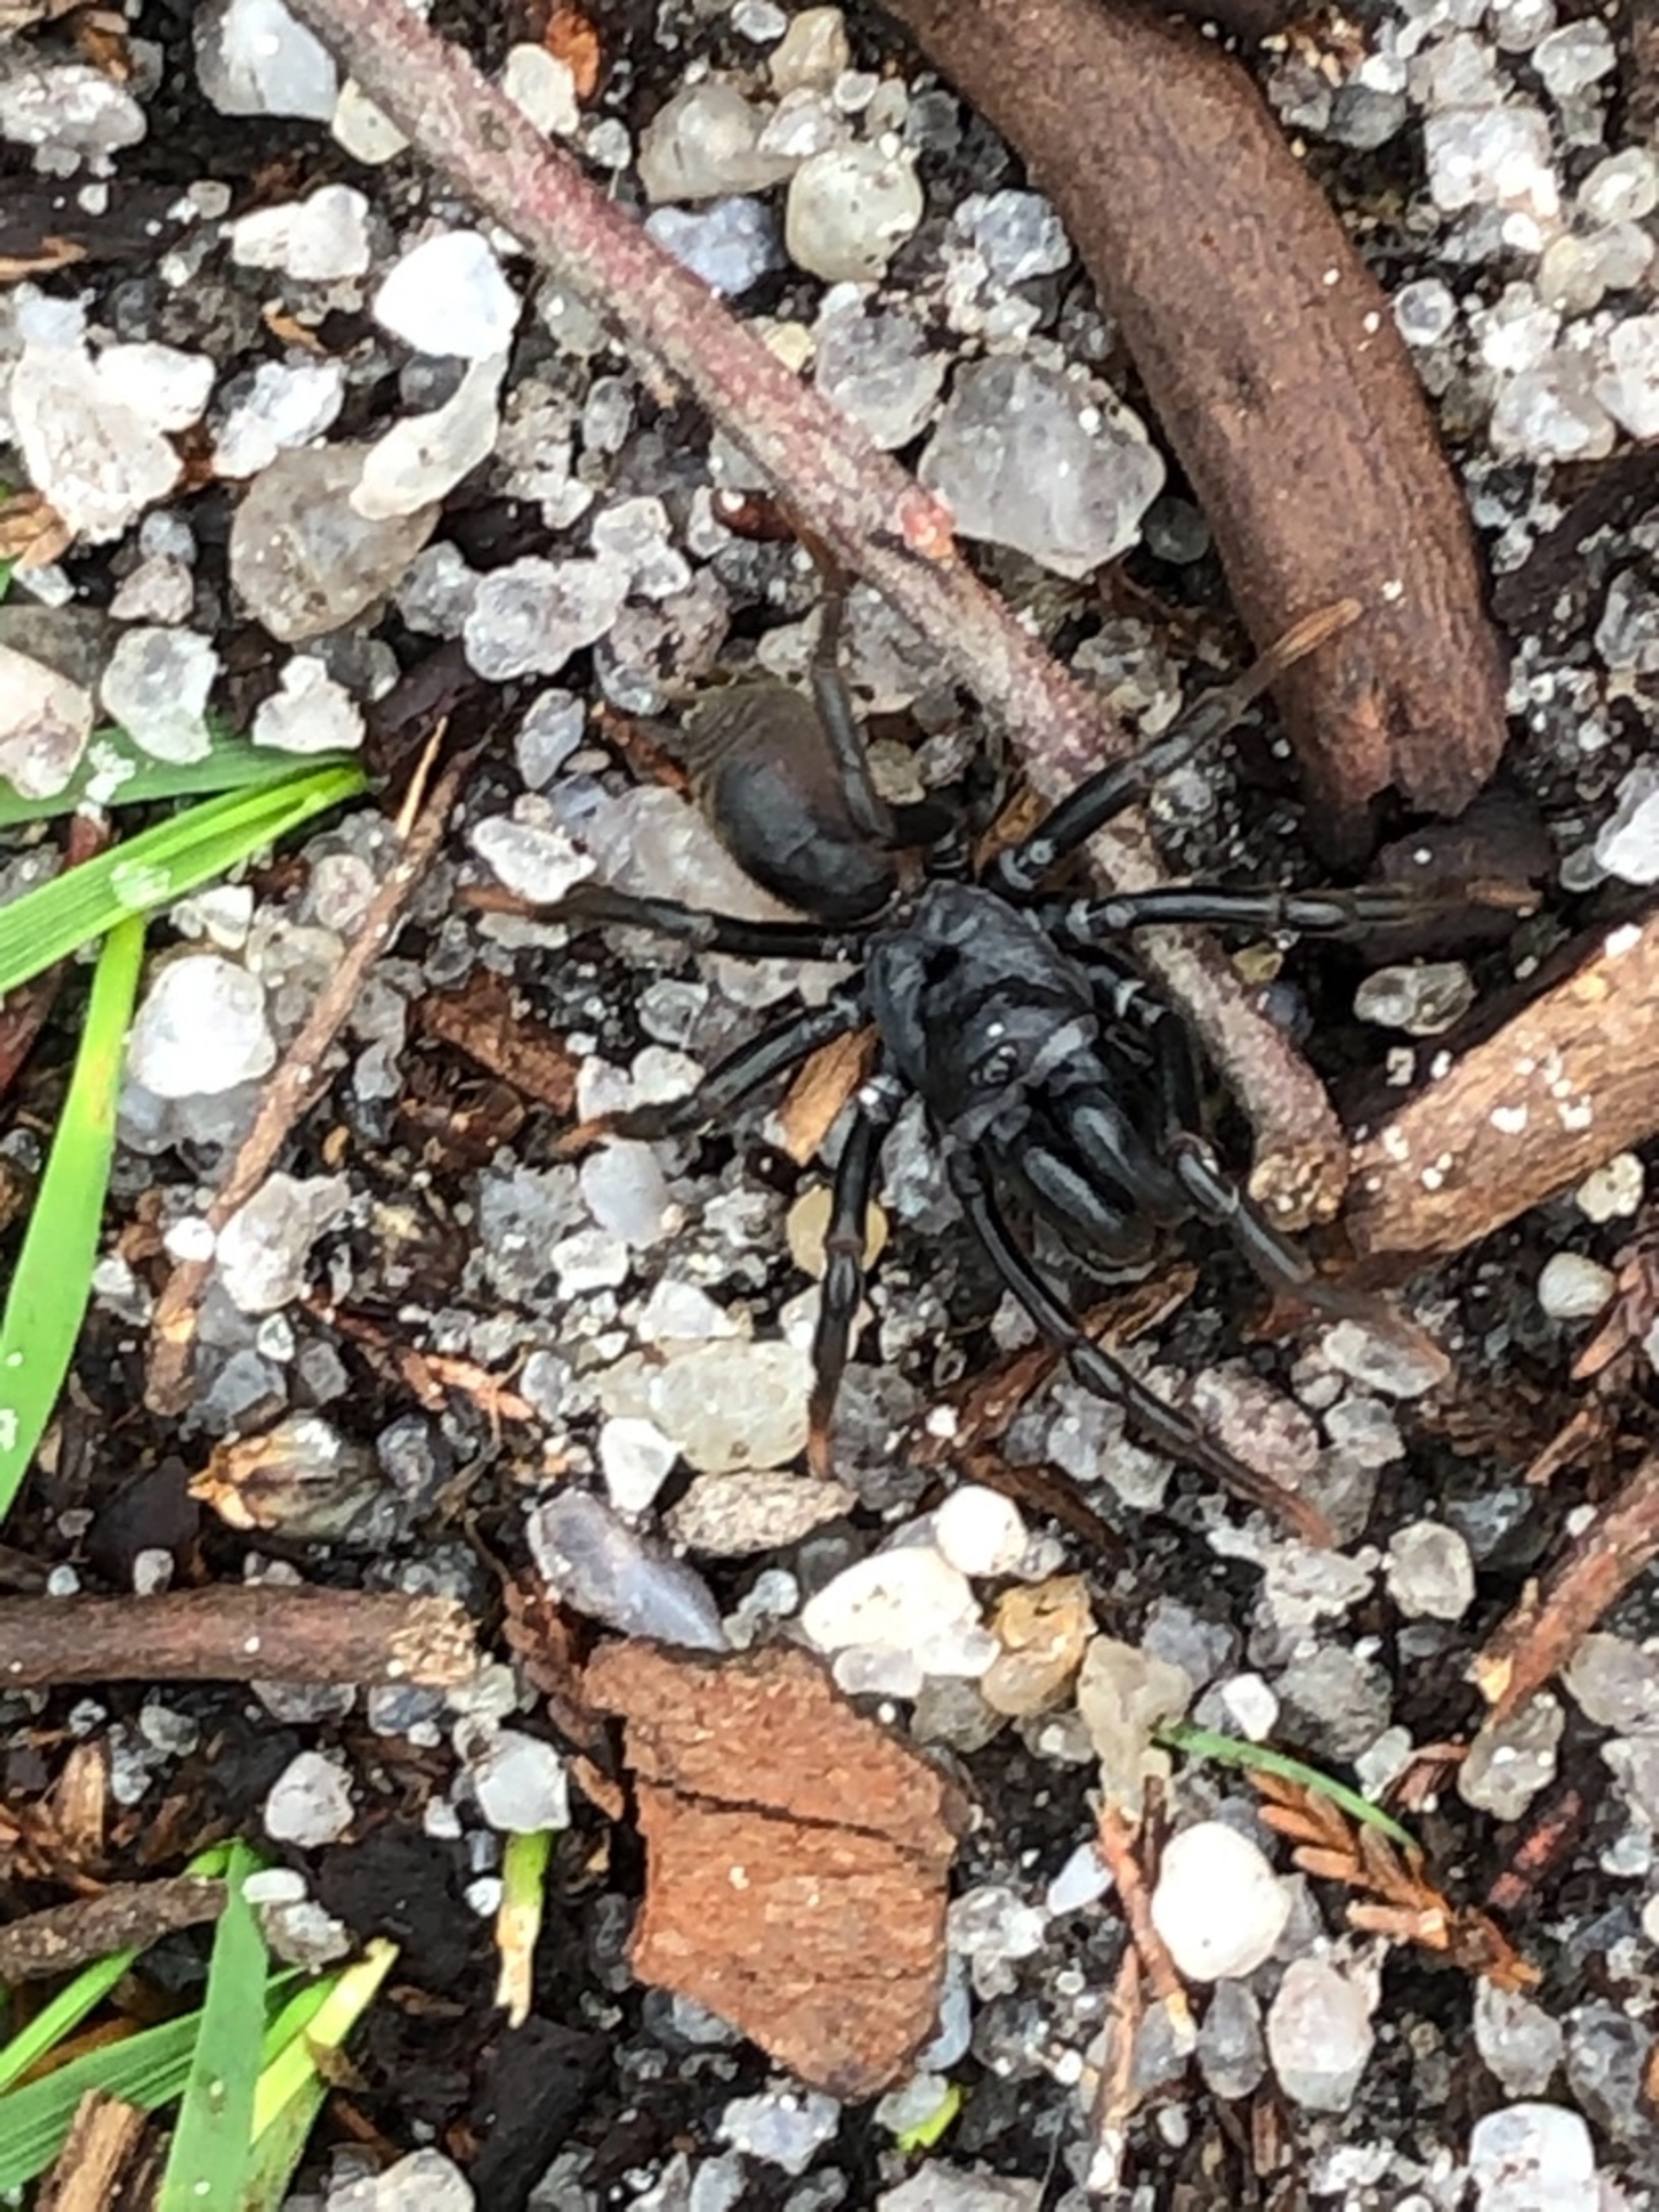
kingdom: Animalia
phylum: Arthropoda
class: Arachnida
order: Araneae
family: Atypidae
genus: Atypus
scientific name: Atypus affinis
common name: Nordlig fugleedderkop
